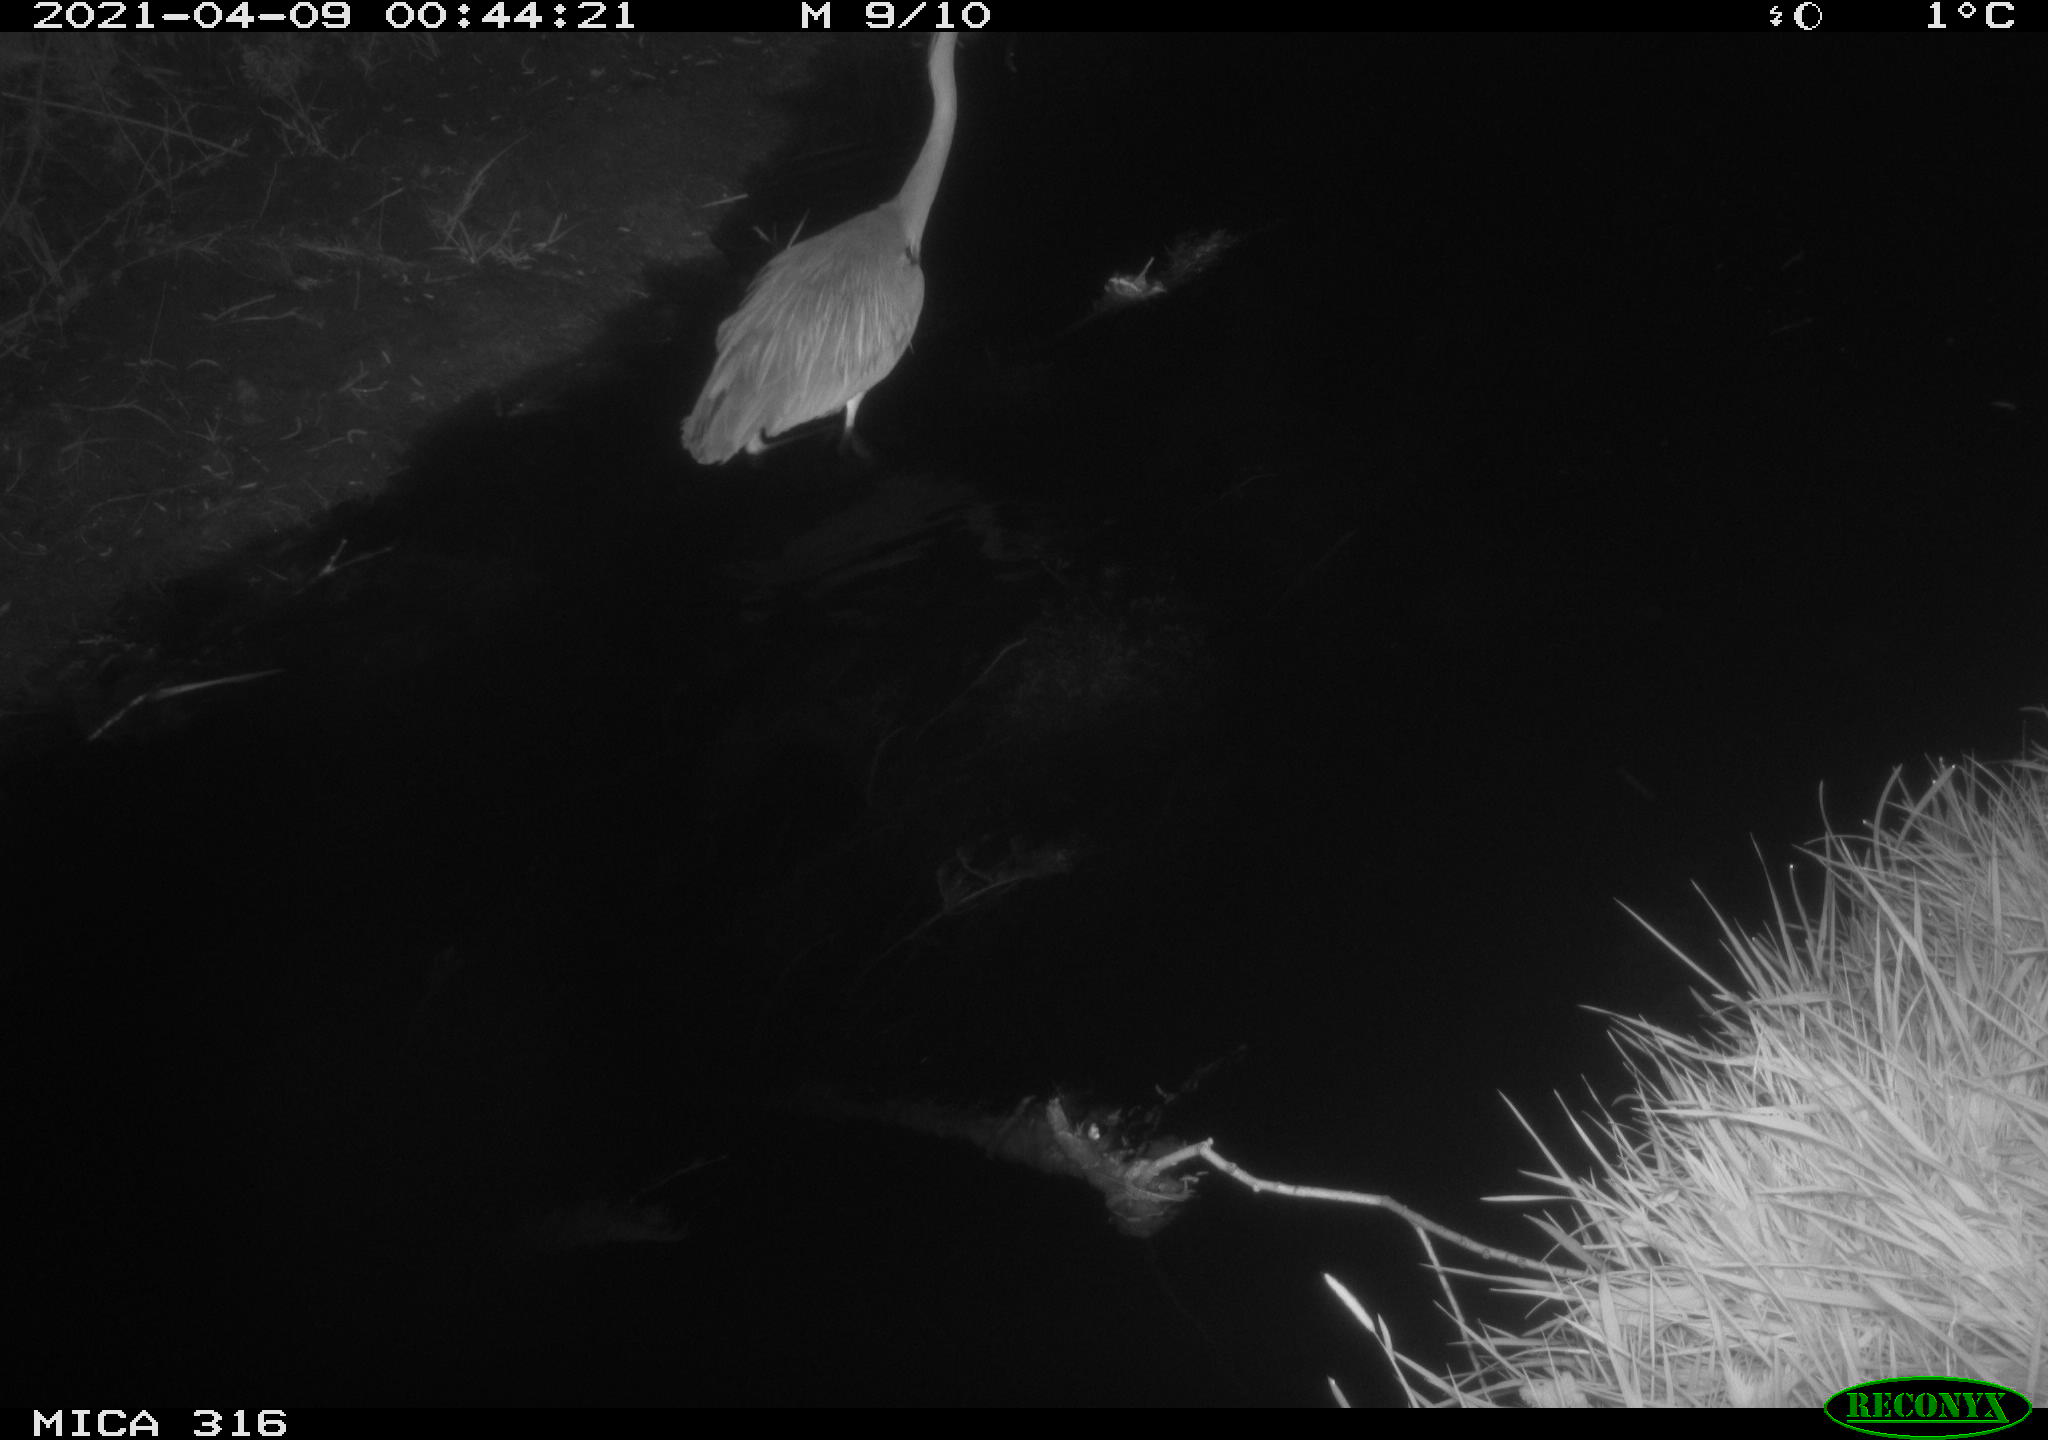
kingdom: Animalia
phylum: Chordata
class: Aves
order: Pelecaniformes
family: Ardeidae
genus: Ardea
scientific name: Ardea
